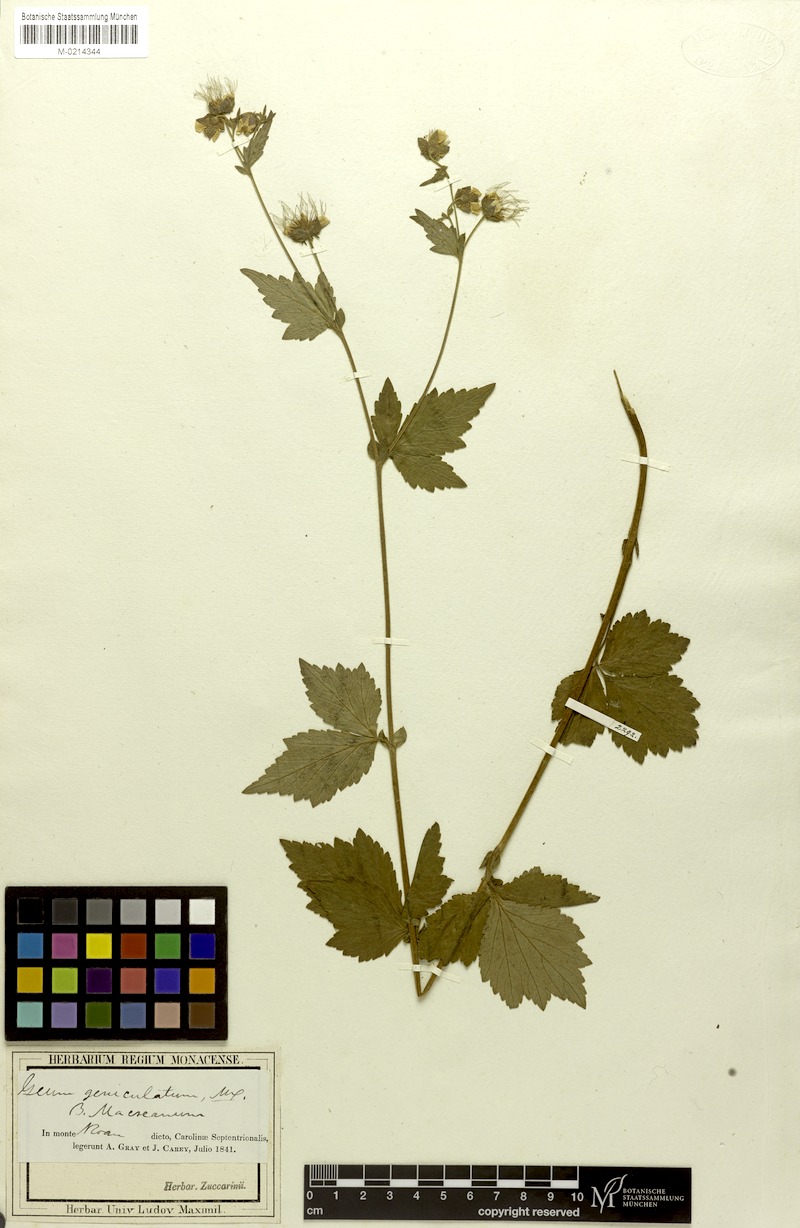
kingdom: Plantae
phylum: Tracheophyta
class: Magnoliopsida
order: Rosales
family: Rosaceae
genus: Geum
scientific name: Geum geniculatum
